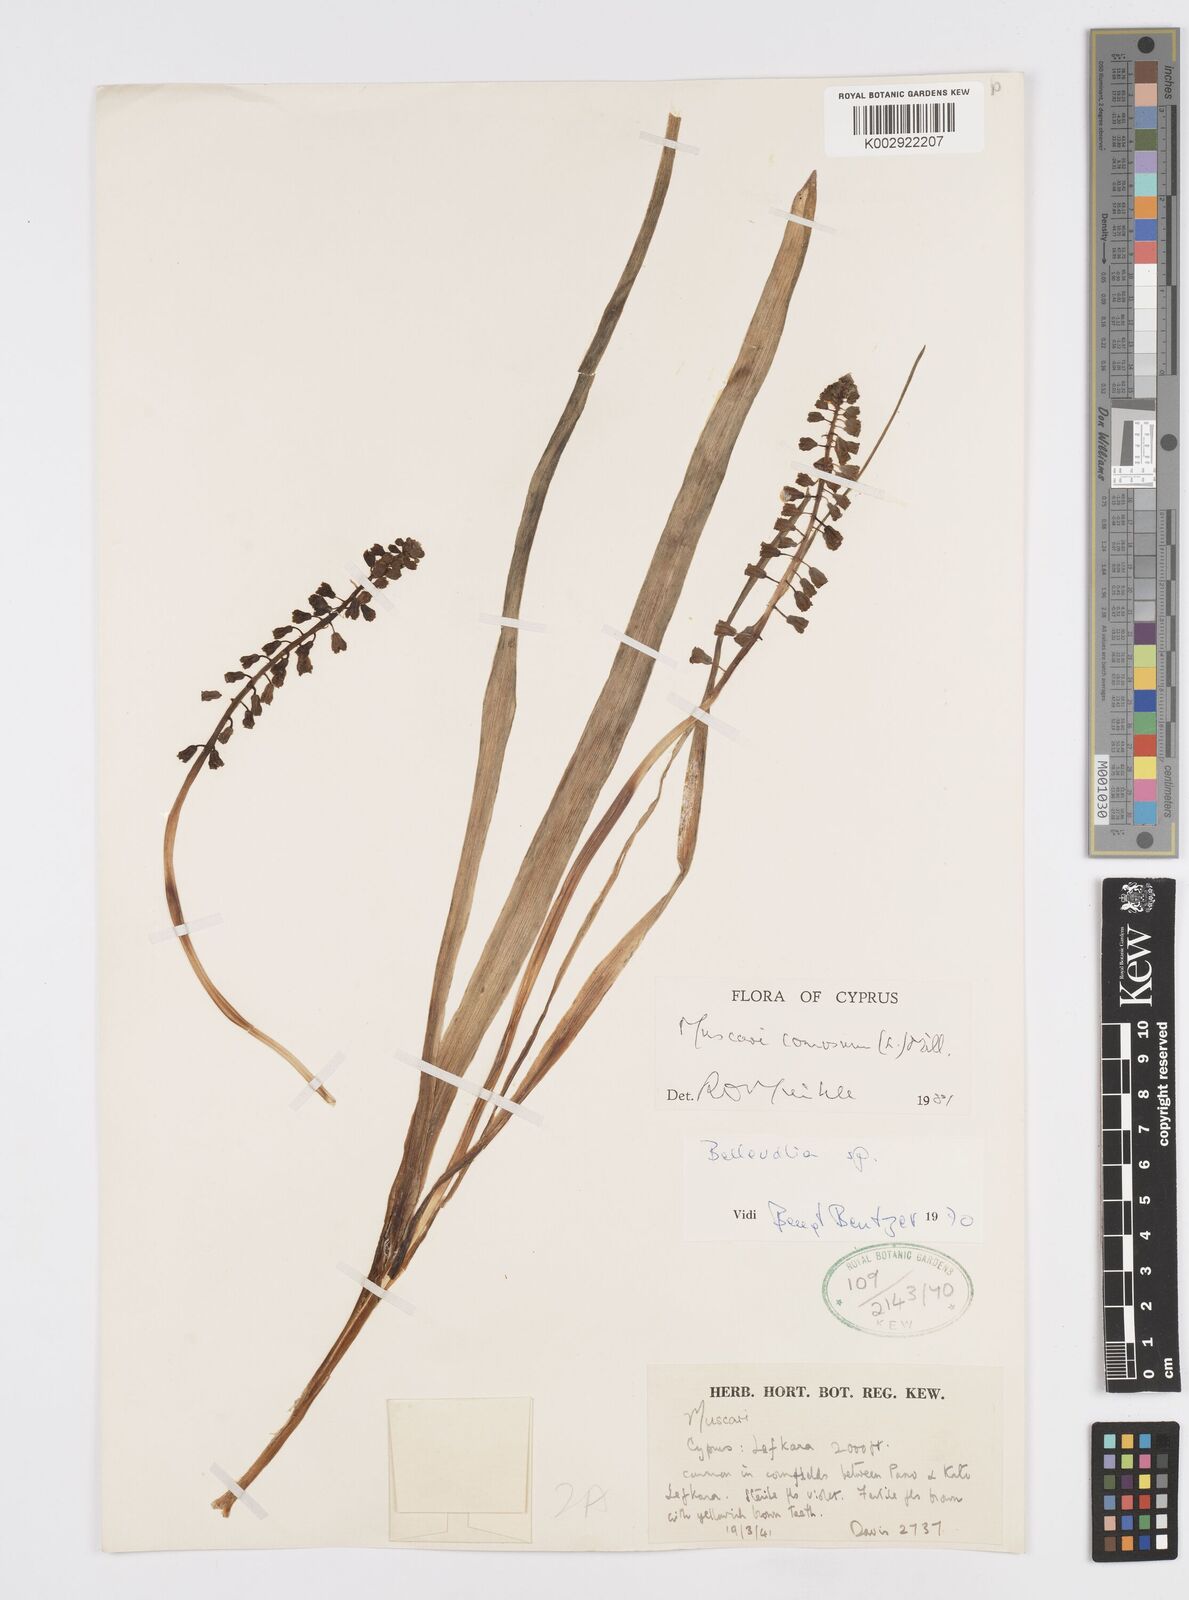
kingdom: Plantae
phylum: Tracheophyta
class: Liliopsida
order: Asparagales
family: Asparagaceae
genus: Muscari
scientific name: Muscari comosum
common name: Tassel hyacinth
